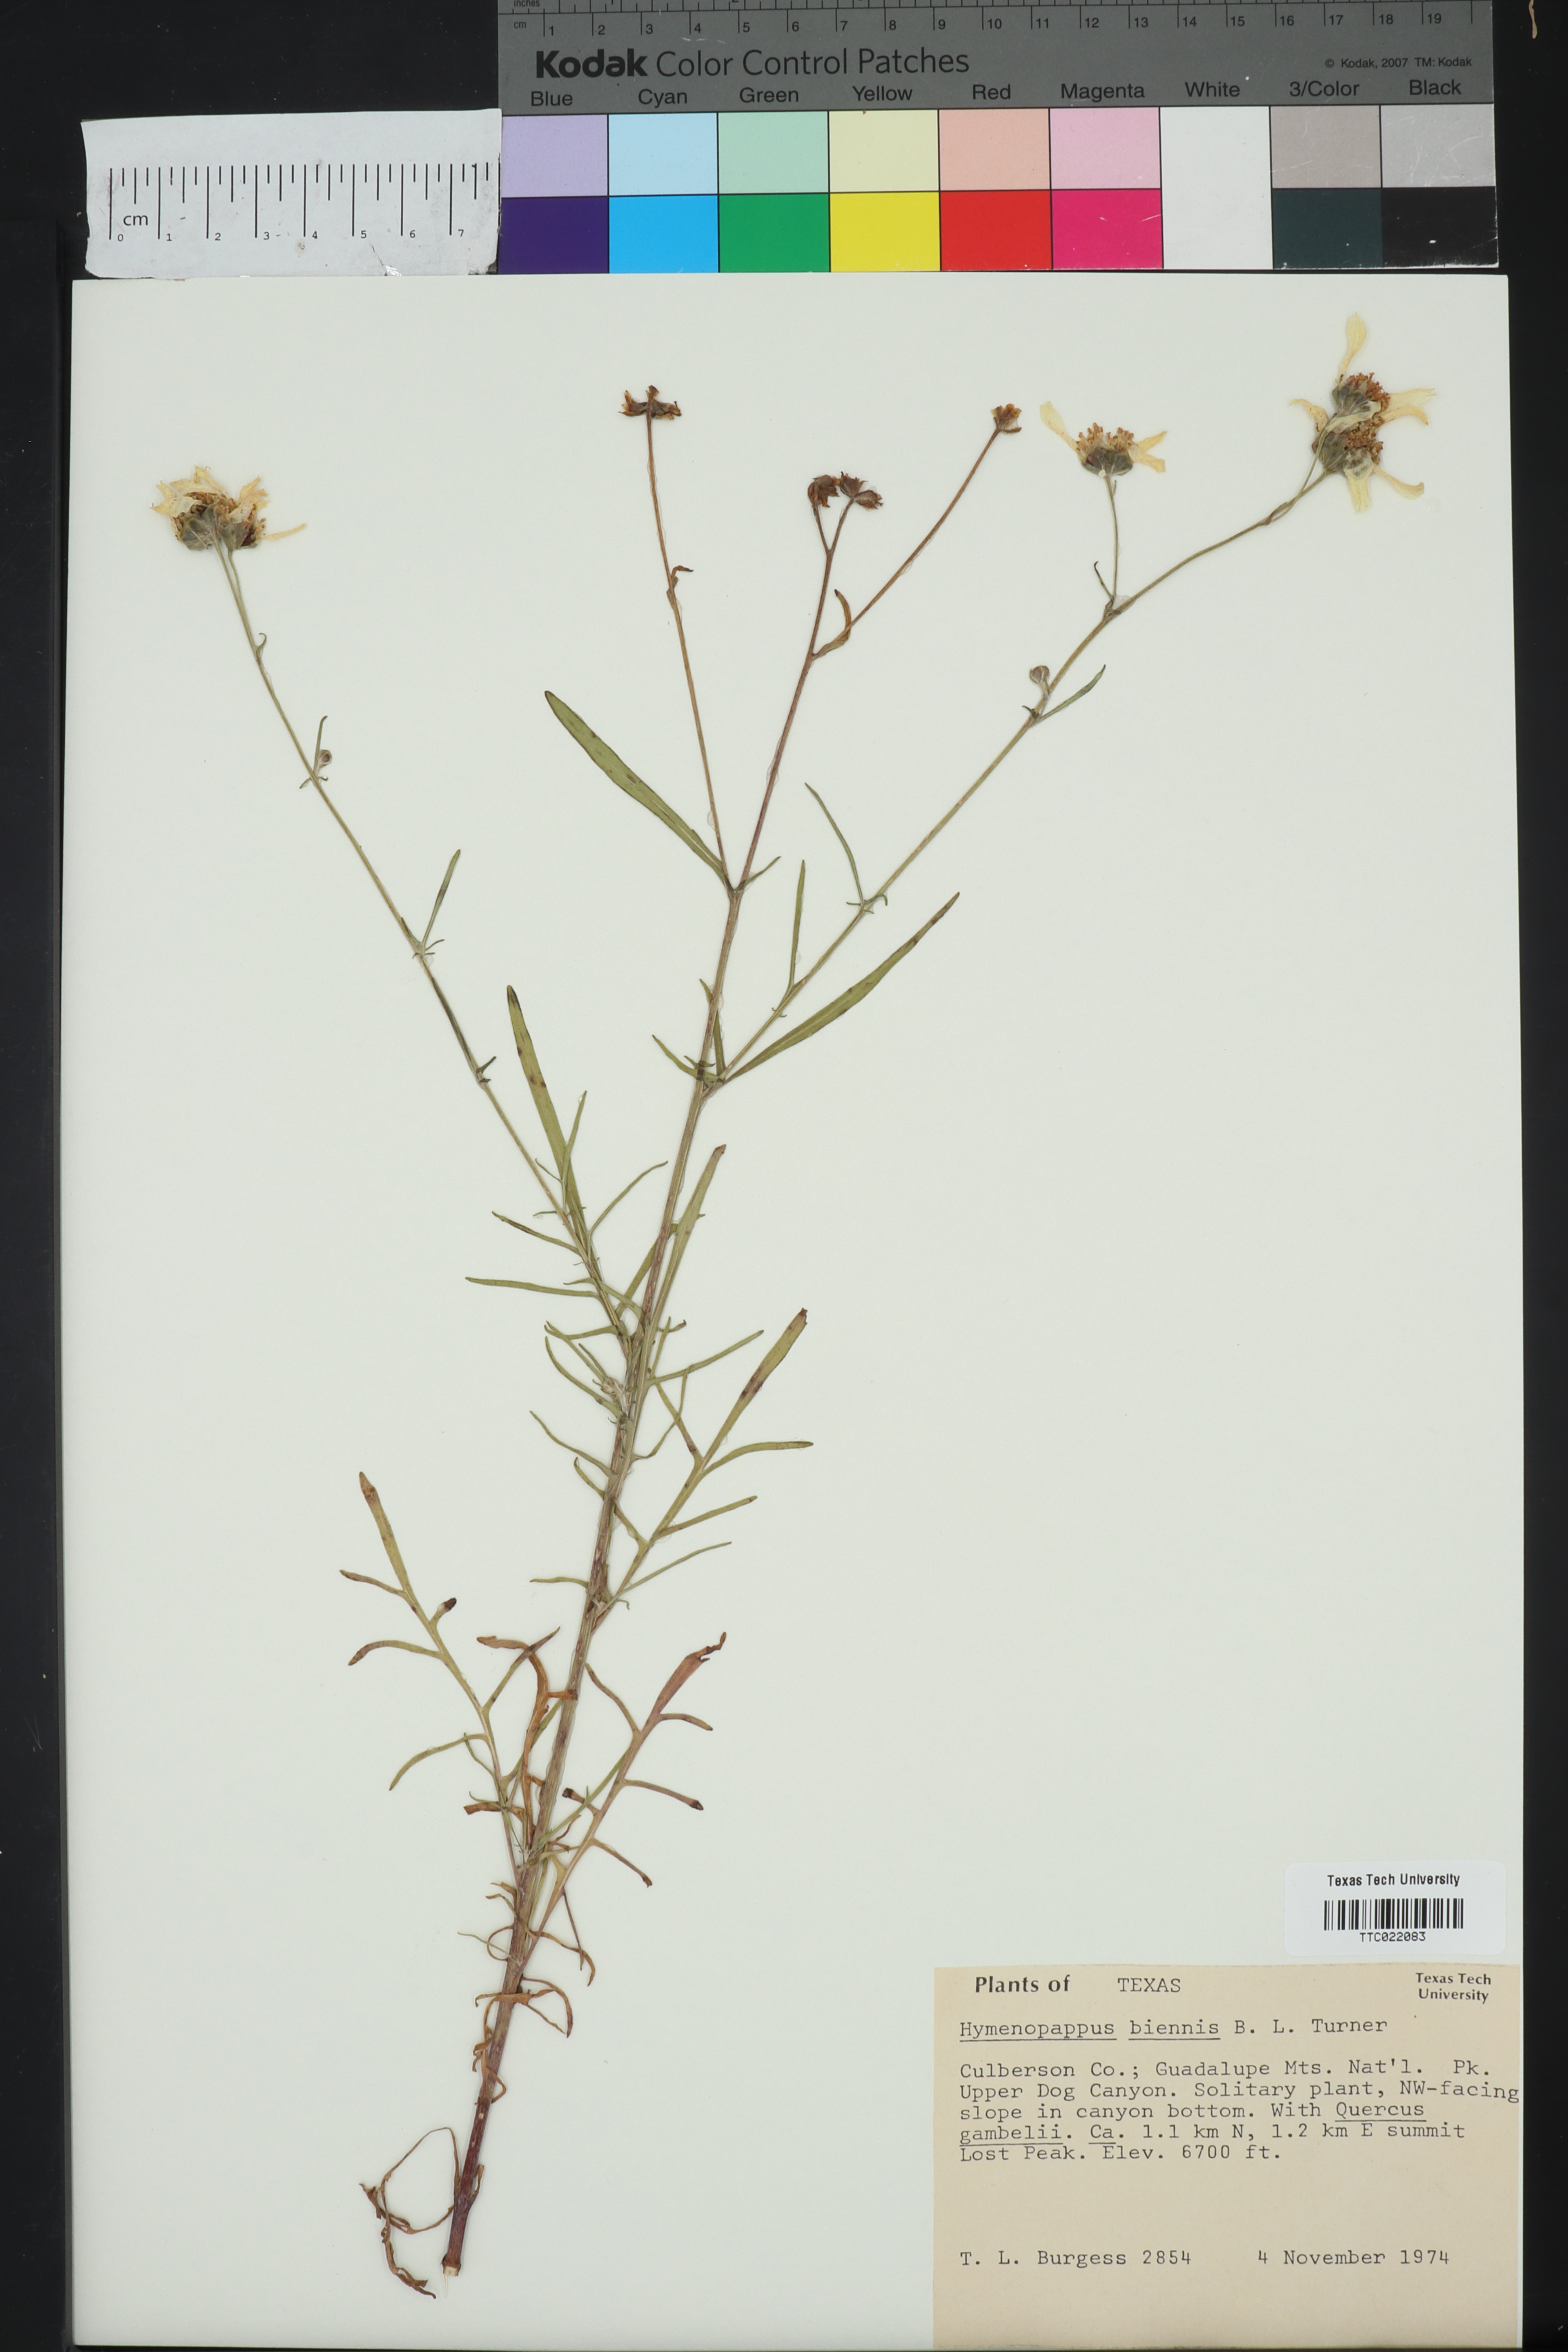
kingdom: Plantae
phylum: Tracheophyta
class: Magnoliopsida
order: Asterales
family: Asteraceae
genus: Hymenopappus
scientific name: Hymenopappus biennis
